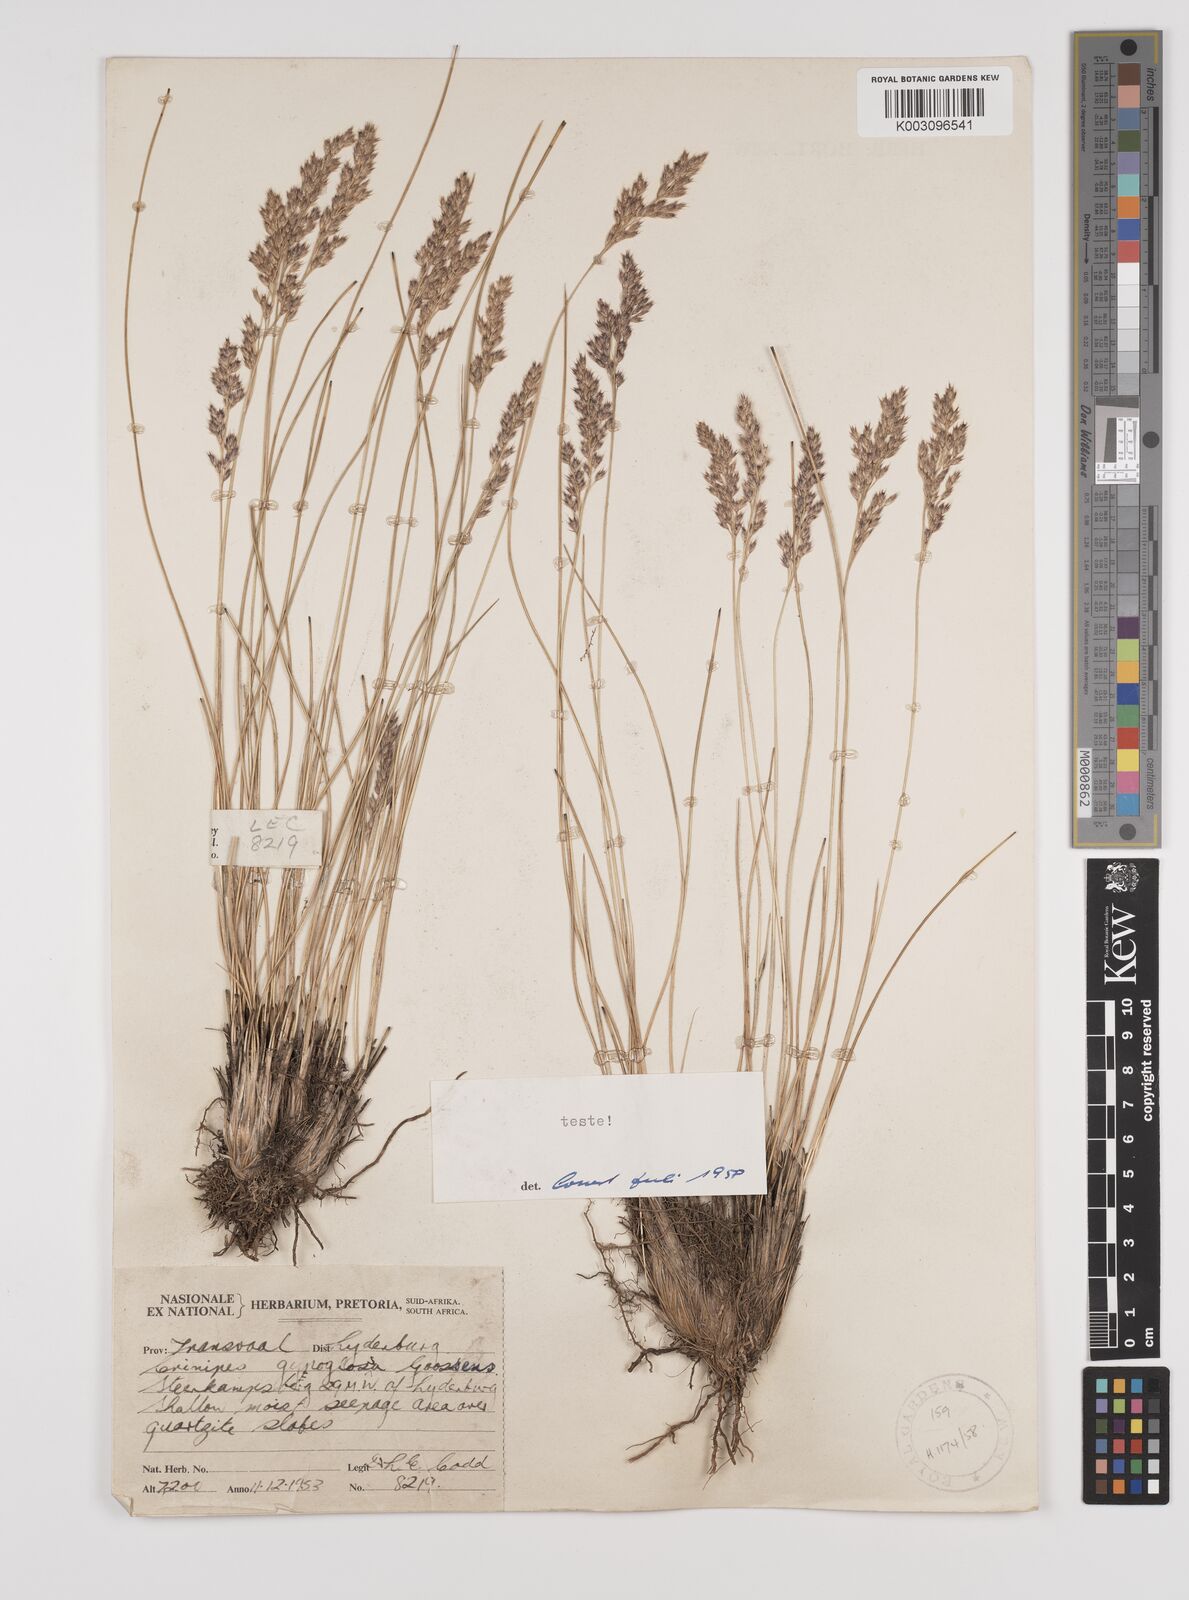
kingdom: Plantae
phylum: Tracheophyta
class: Liliopsida
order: Poales
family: Poaceae
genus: Styppeiochloa
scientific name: Styppeiochloa gynoglossa
